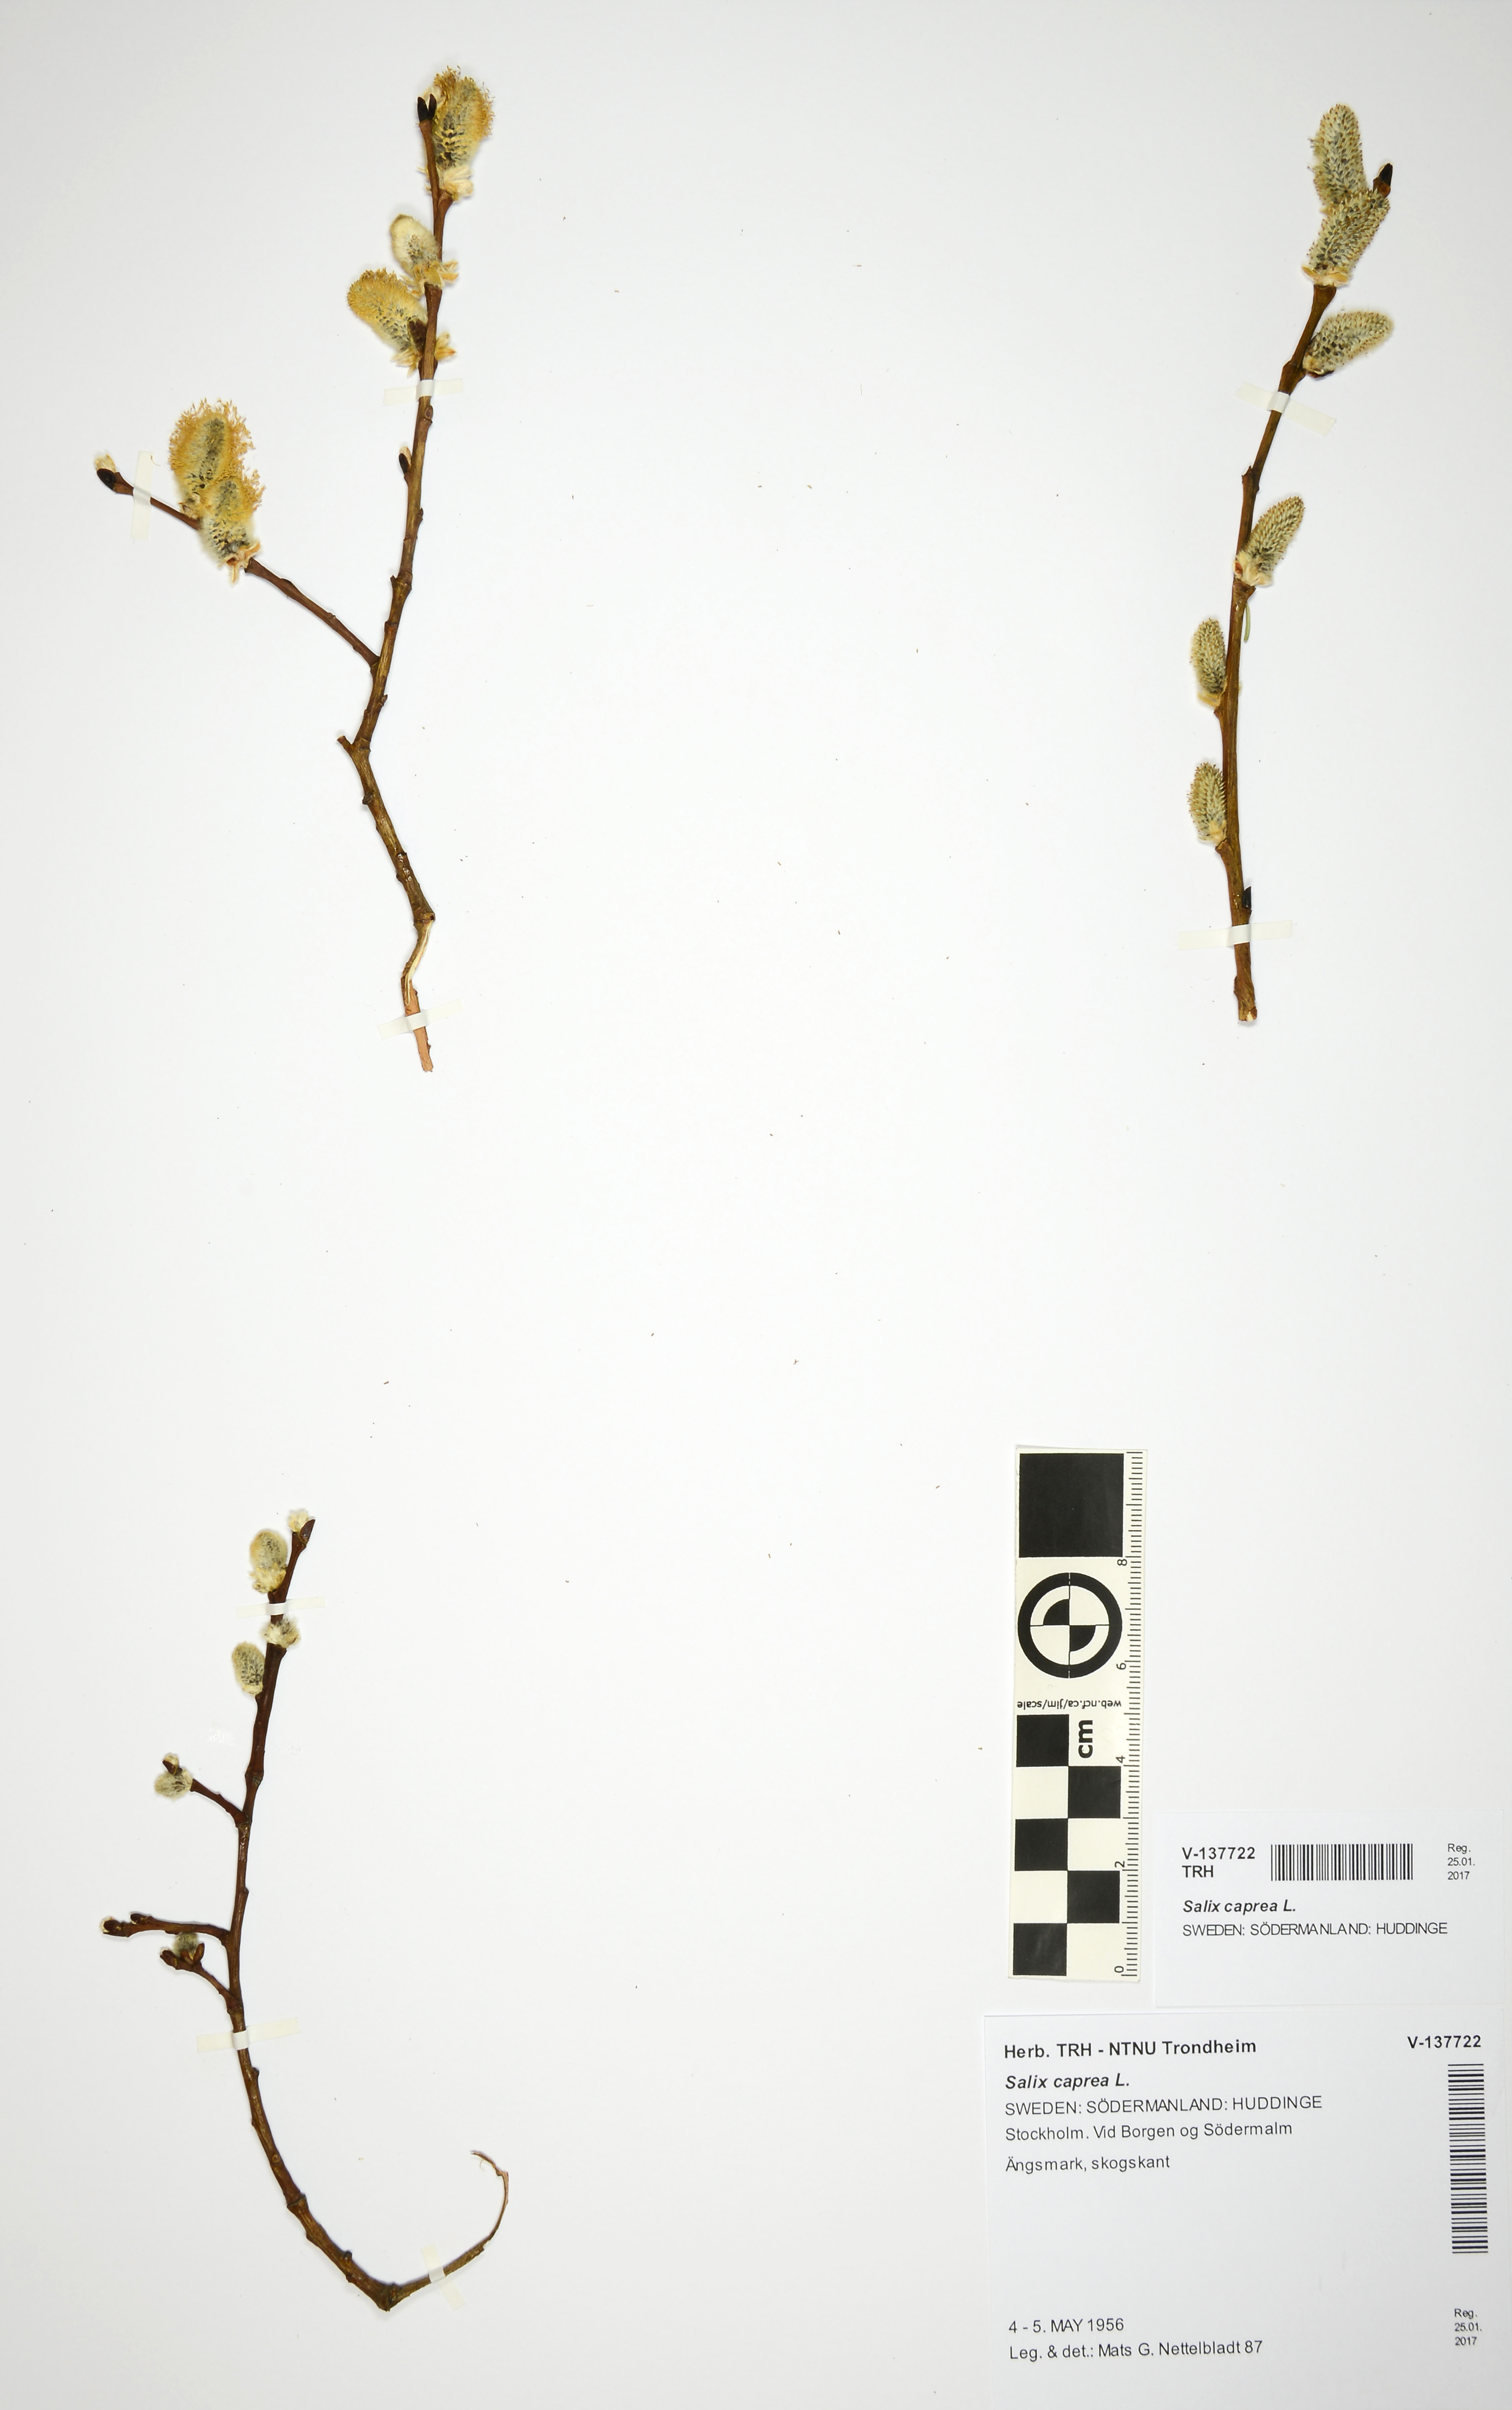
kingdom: Plantae
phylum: Tracheophyta
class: Magnoliopsida
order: Malpighiales
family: Salicaceae
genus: Salix
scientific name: Salix caprea
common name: Goat willow
